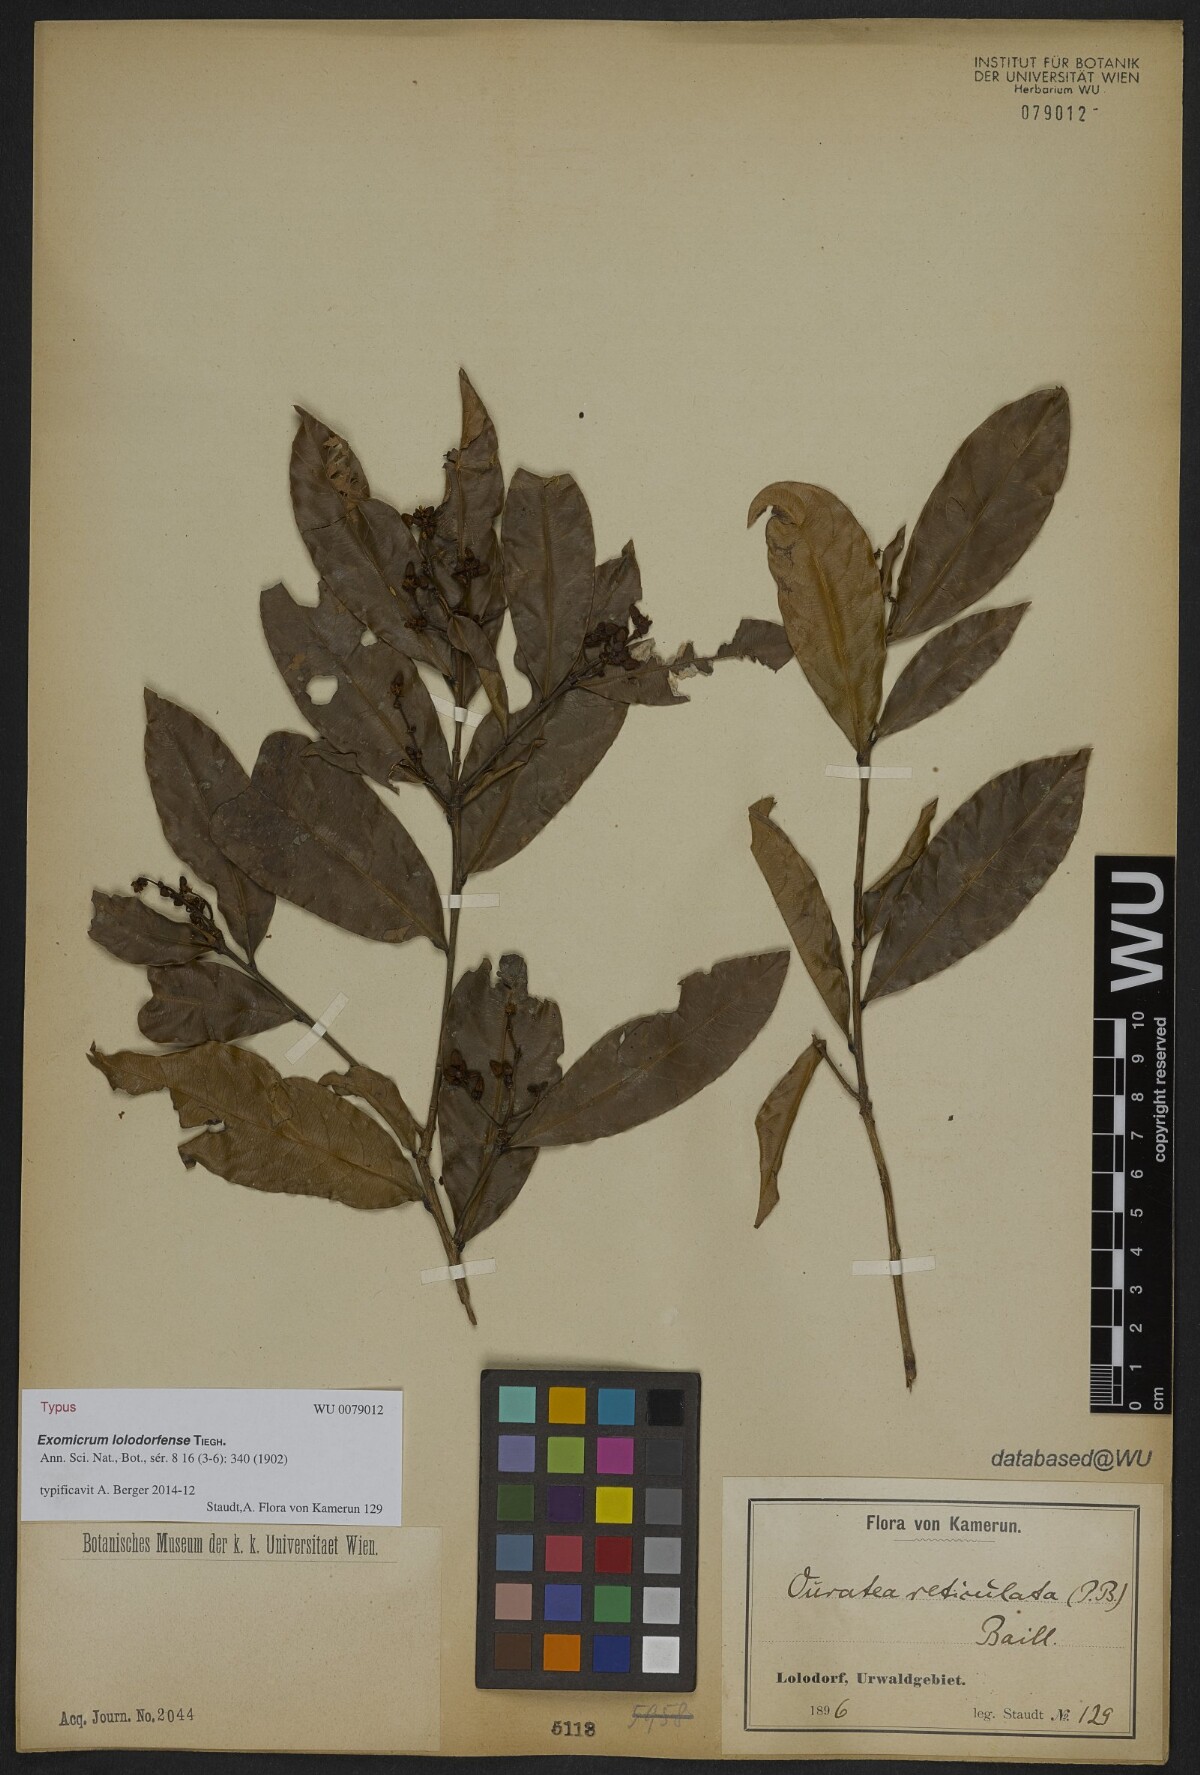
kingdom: Plantae
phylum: Tracheophyta
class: Magnoliopsida
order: Malpighiales
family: Ochnaceae
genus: Campylospermum
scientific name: Campylospermum vogelii
